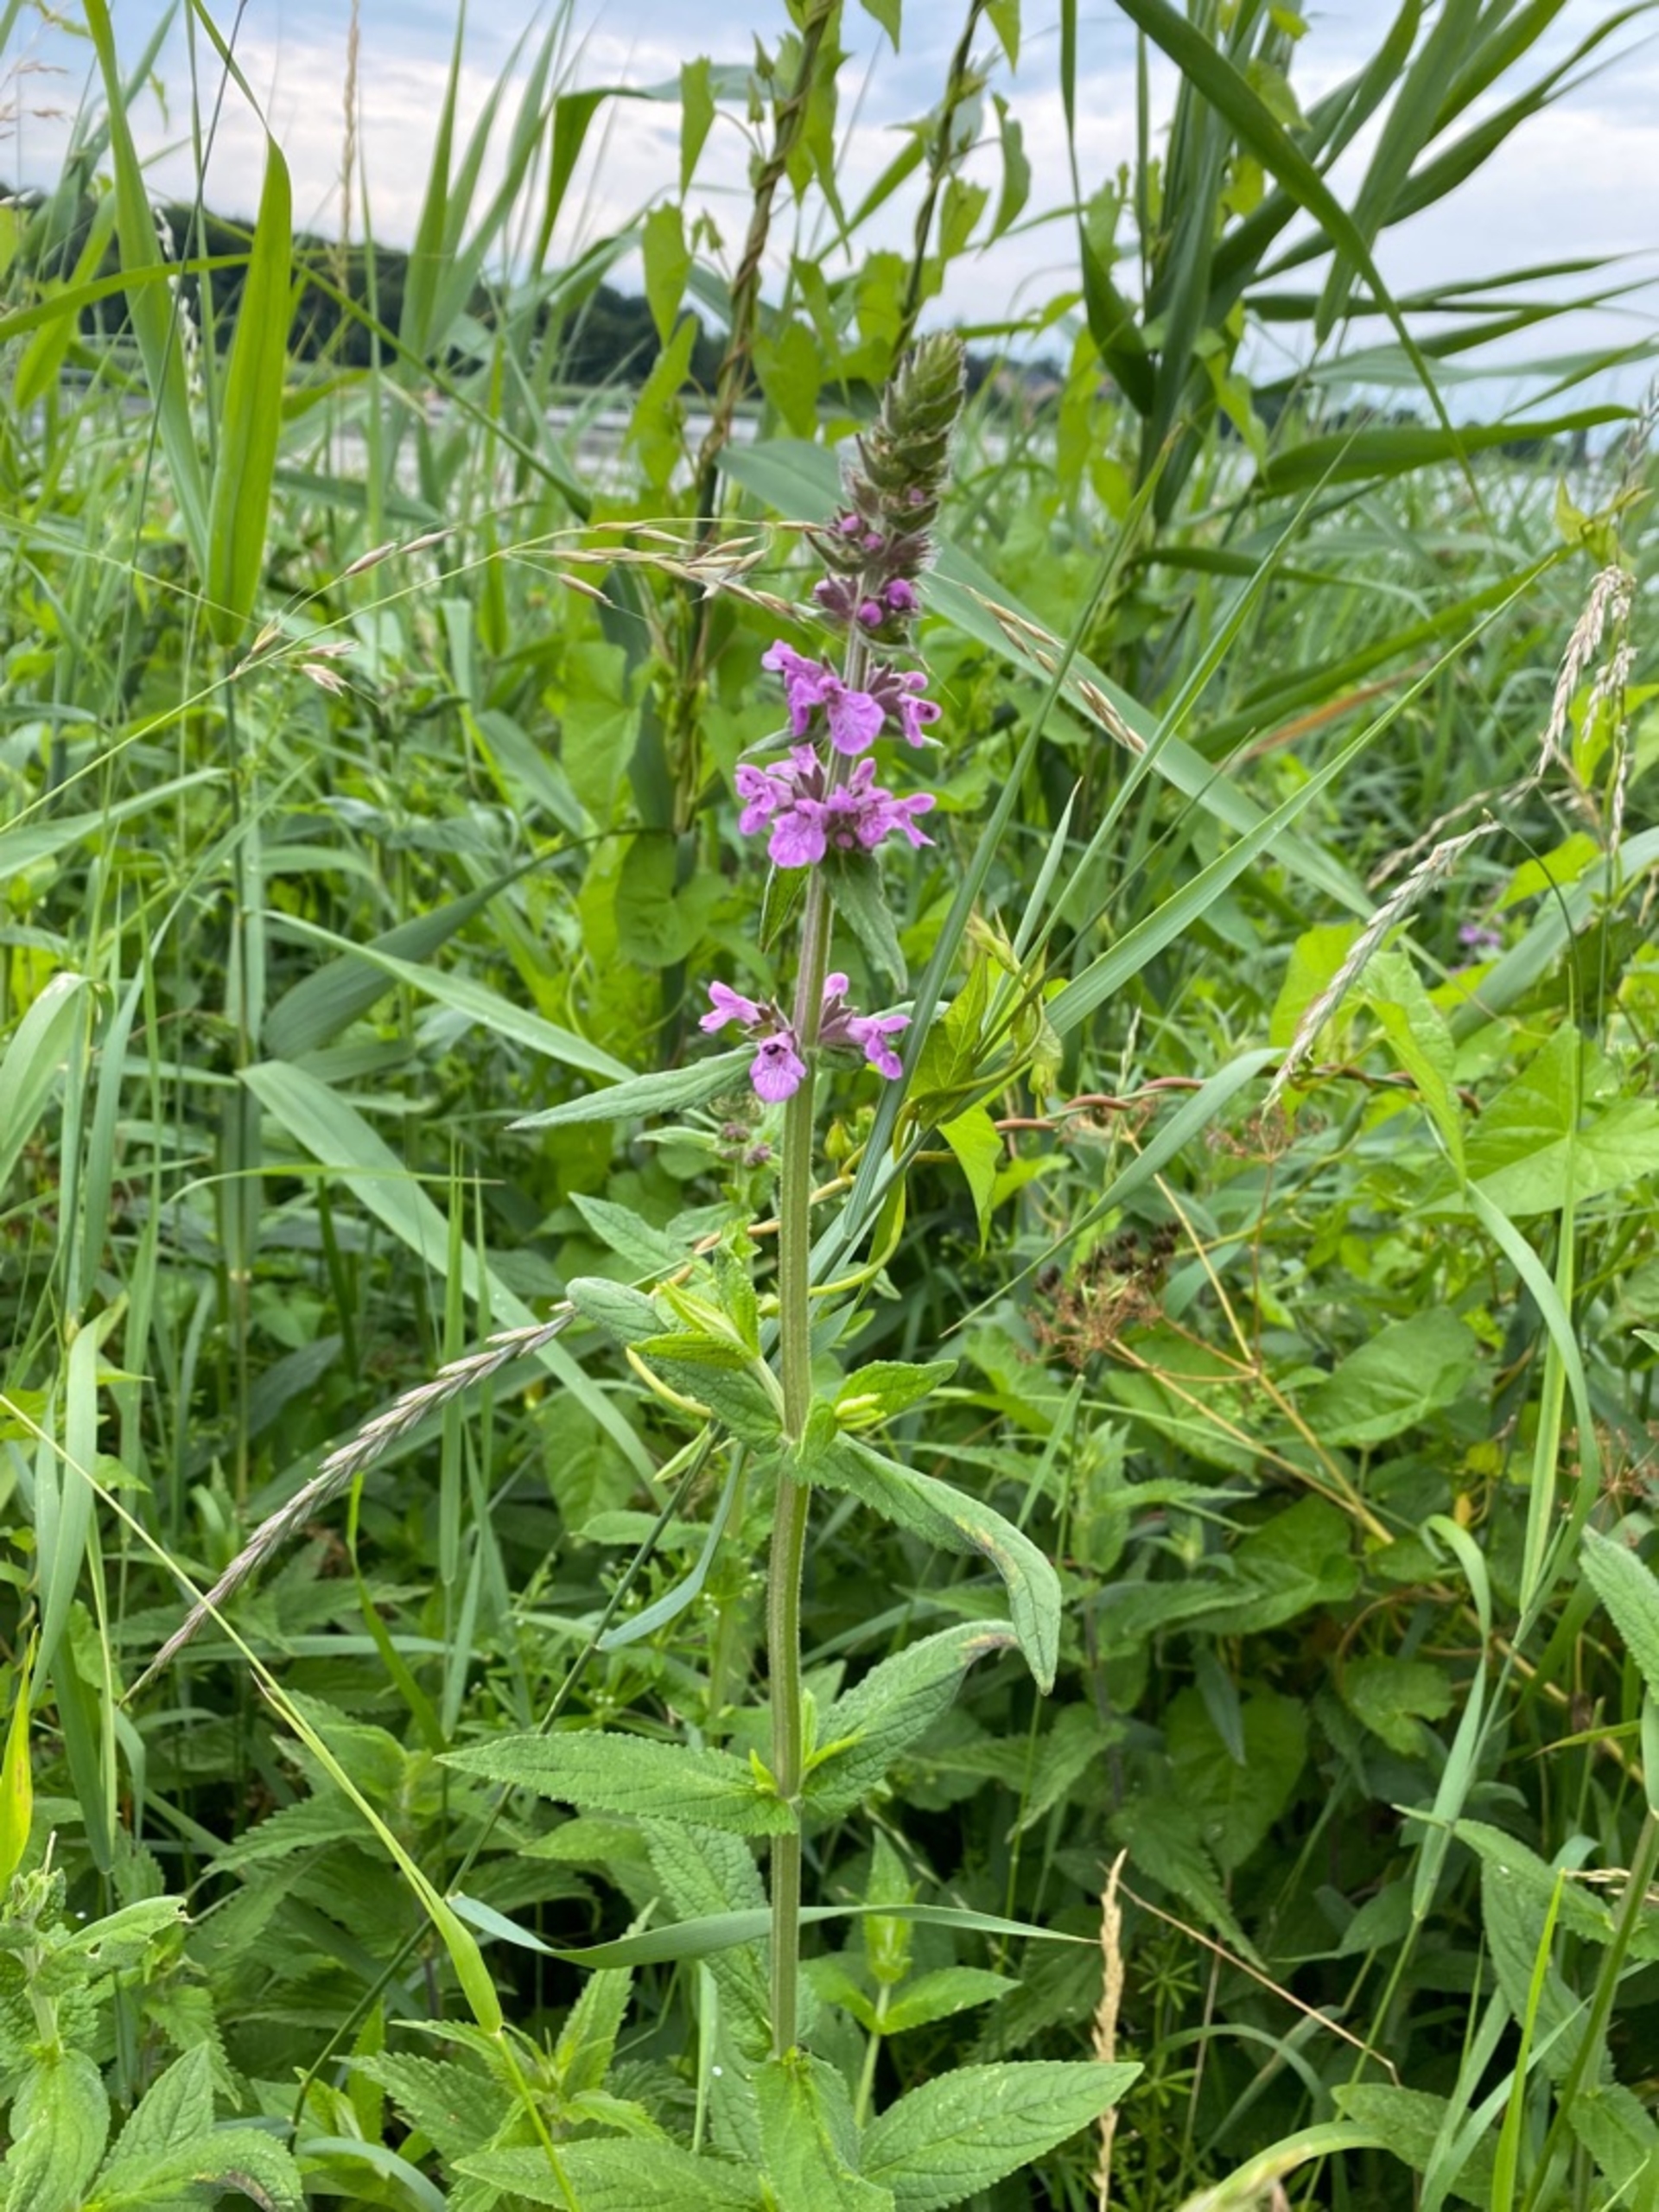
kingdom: Plantae
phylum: Tracheophyta
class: Magnoliopsida
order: Lamiales
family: Lamiaceae
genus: Stachys
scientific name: Stachys palustris
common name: Kær-galtetand
